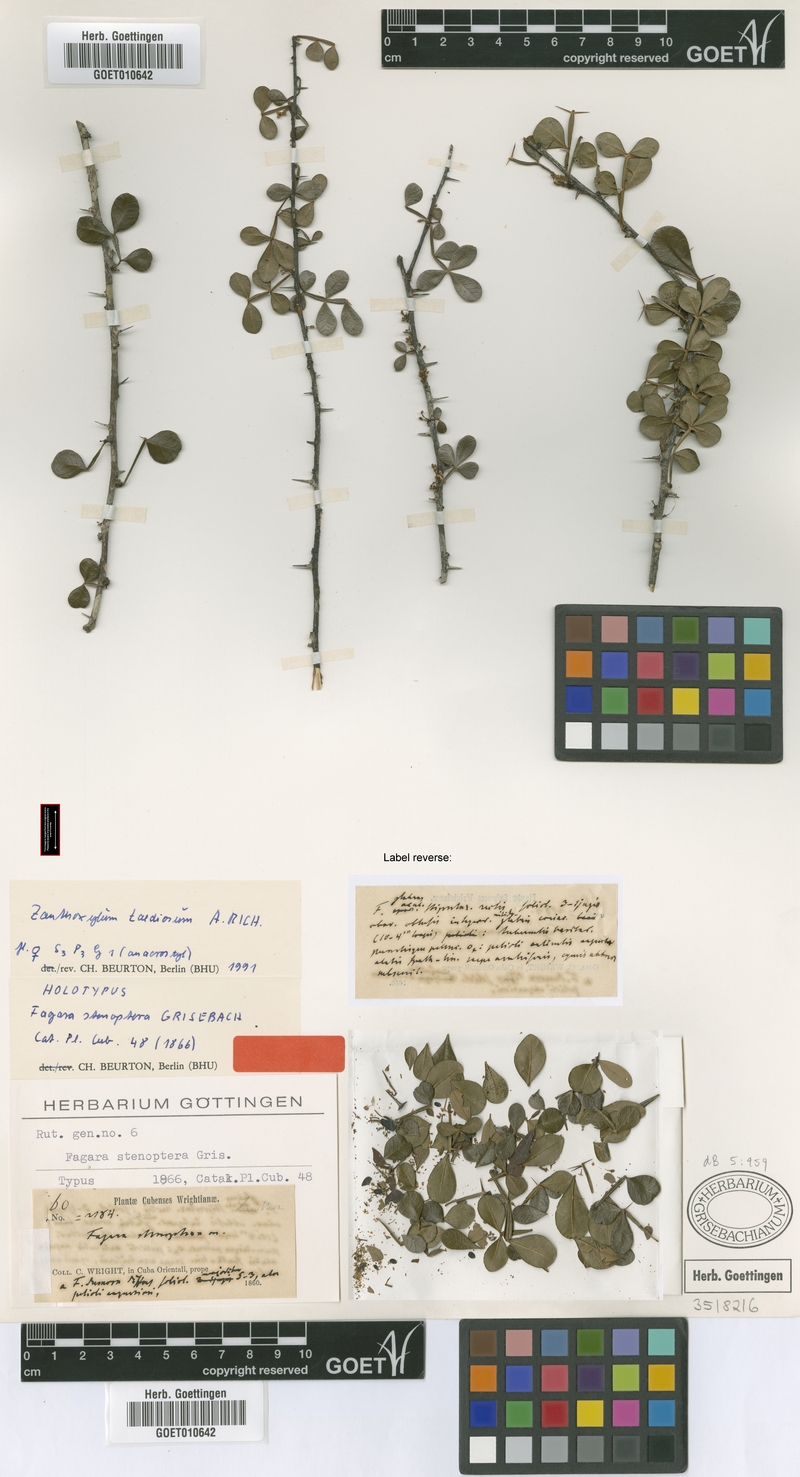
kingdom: Plantae
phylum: Tracheophyta
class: Magnoliopsida
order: Sapindales
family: Rutaceae
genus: Zanthoxylum
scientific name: Zanthoxylum taediosum
